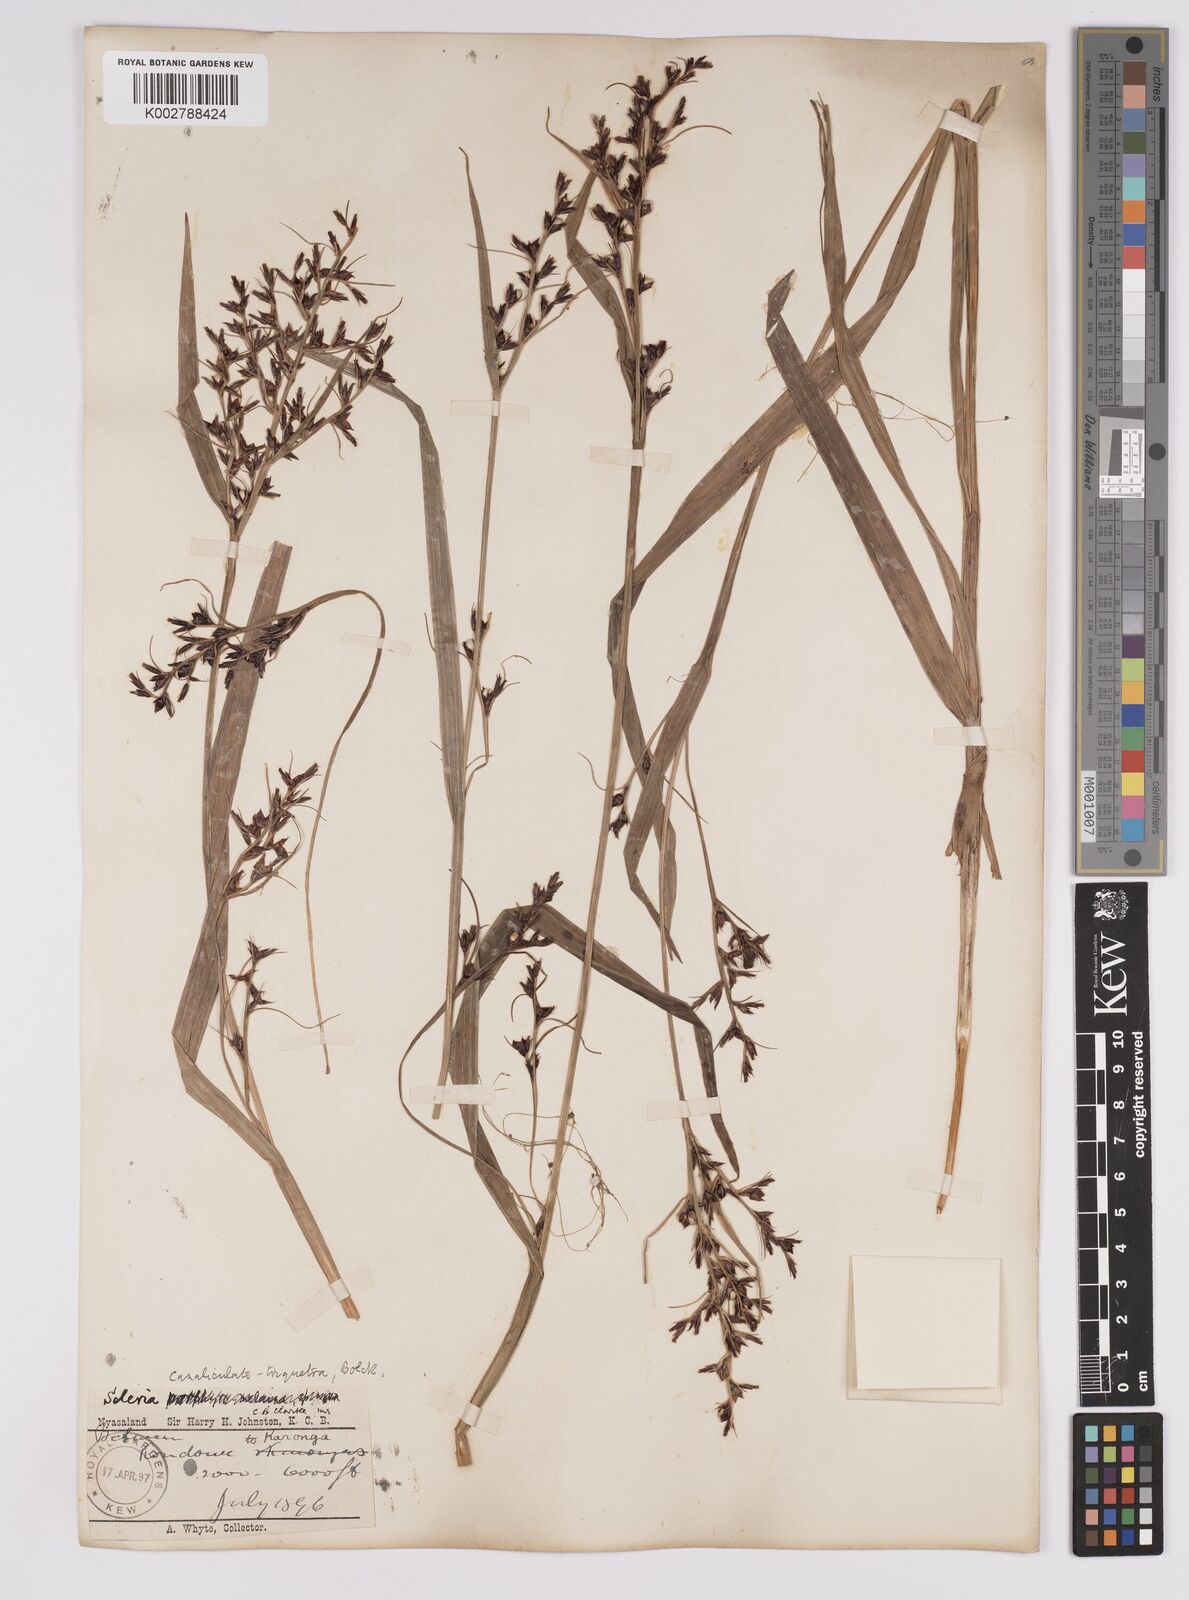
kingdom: Plantae
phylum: Tracheophyta
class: Liliopsida
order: Poales
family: Cyperaceae
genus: Scleria
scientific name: Scleria lagoensis
